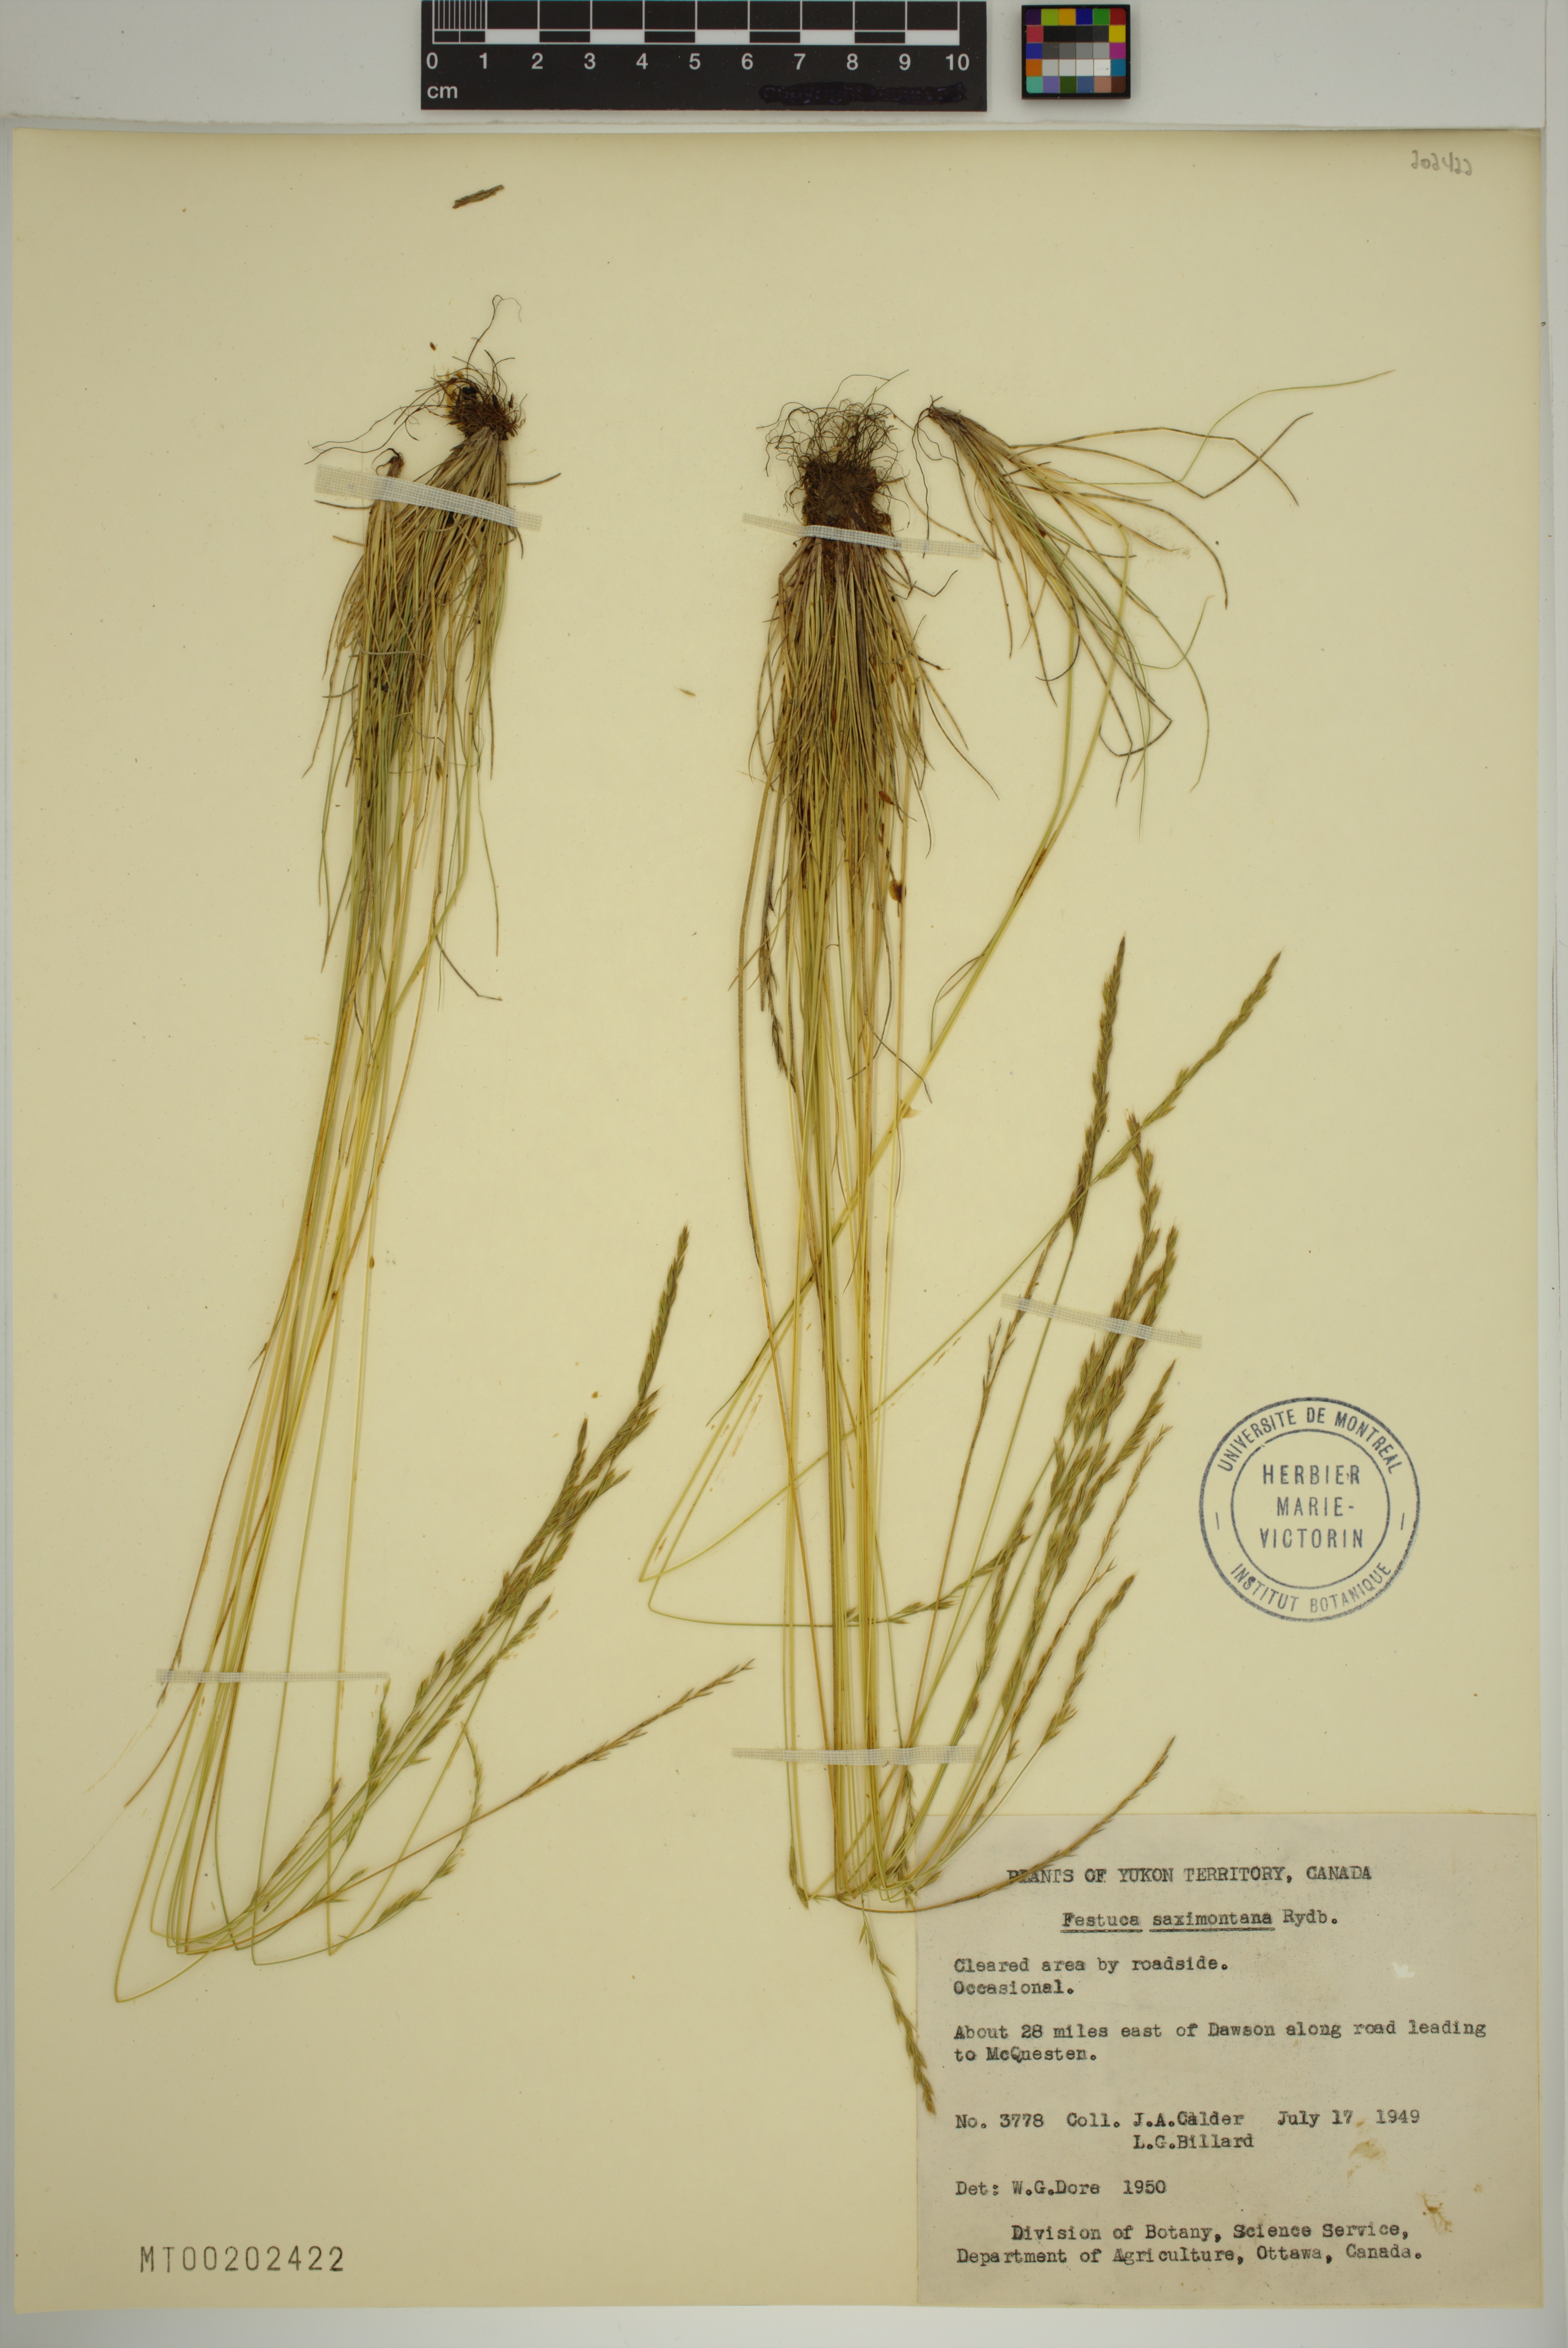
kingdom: Plantae
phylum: Tracheophyta
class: Liliopsida
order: Poales
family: Poaceae
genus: Festuca
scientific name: Festuca saximontana
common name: Mountain fescue
